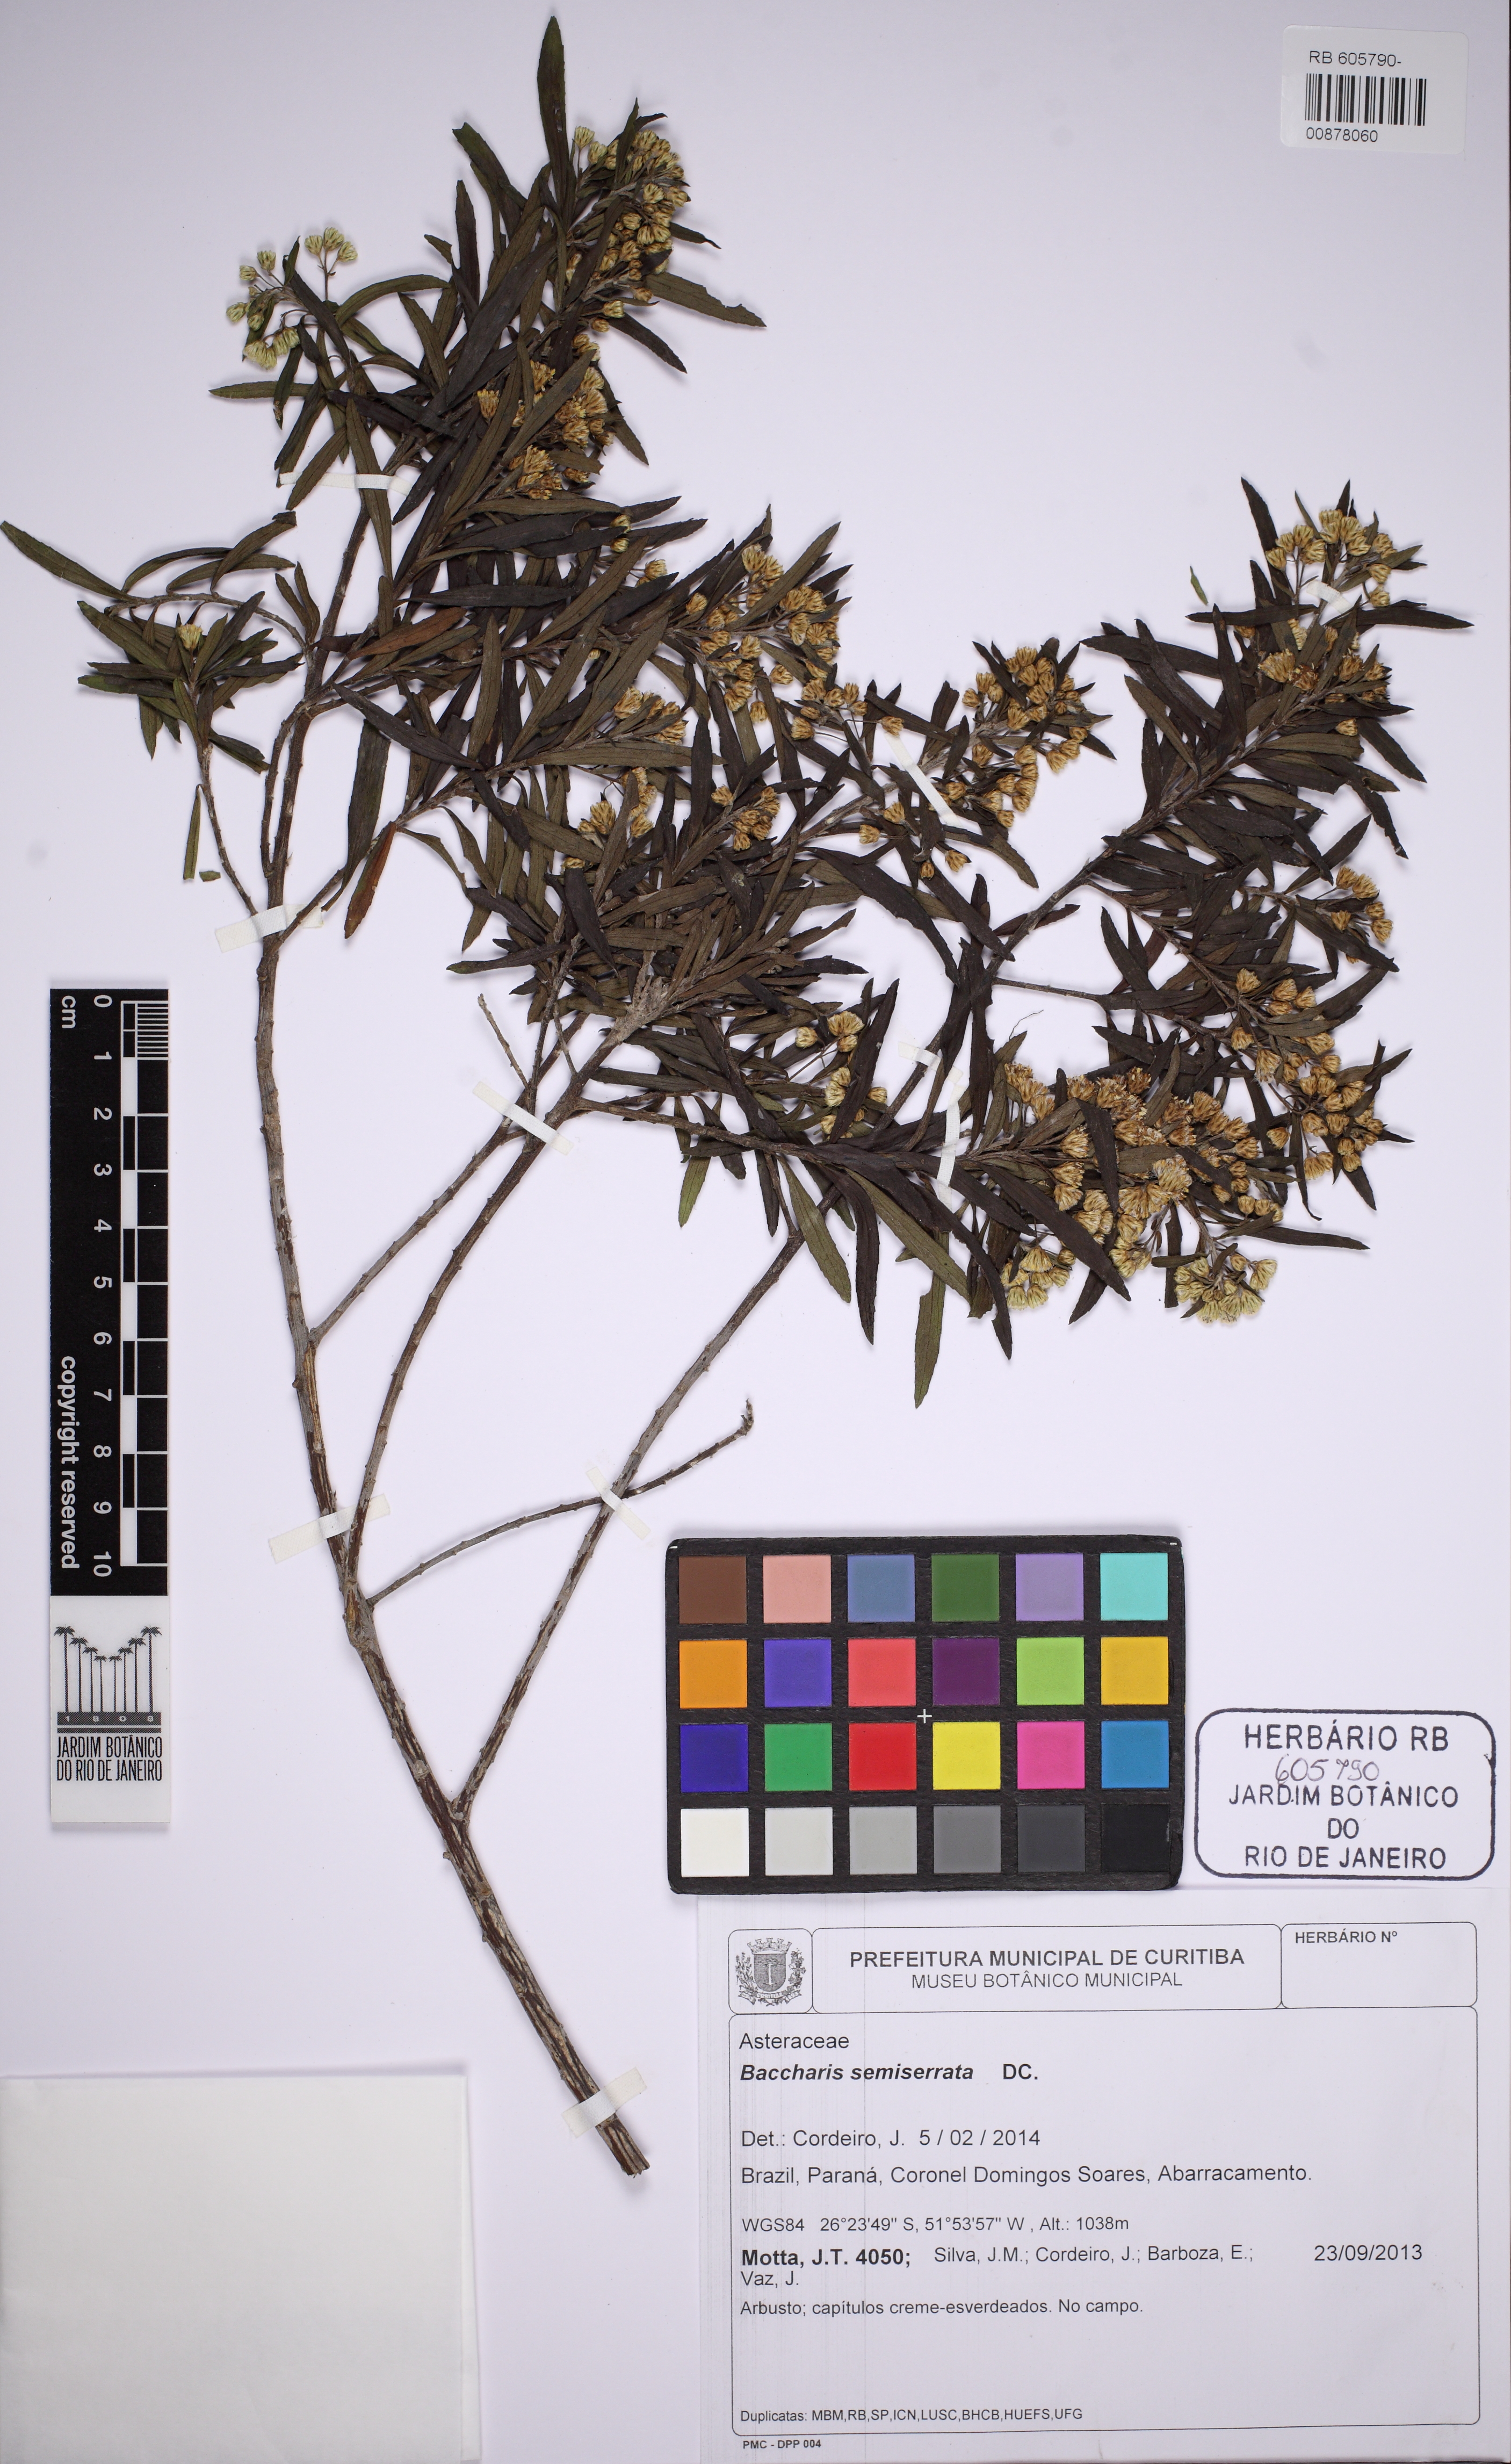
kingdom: Plantae
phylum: Tracheophyta
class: Magnoliopsida
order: Asterales
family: Asteraceae
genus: Baccharis
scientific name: Baccharis gnidiifolia
